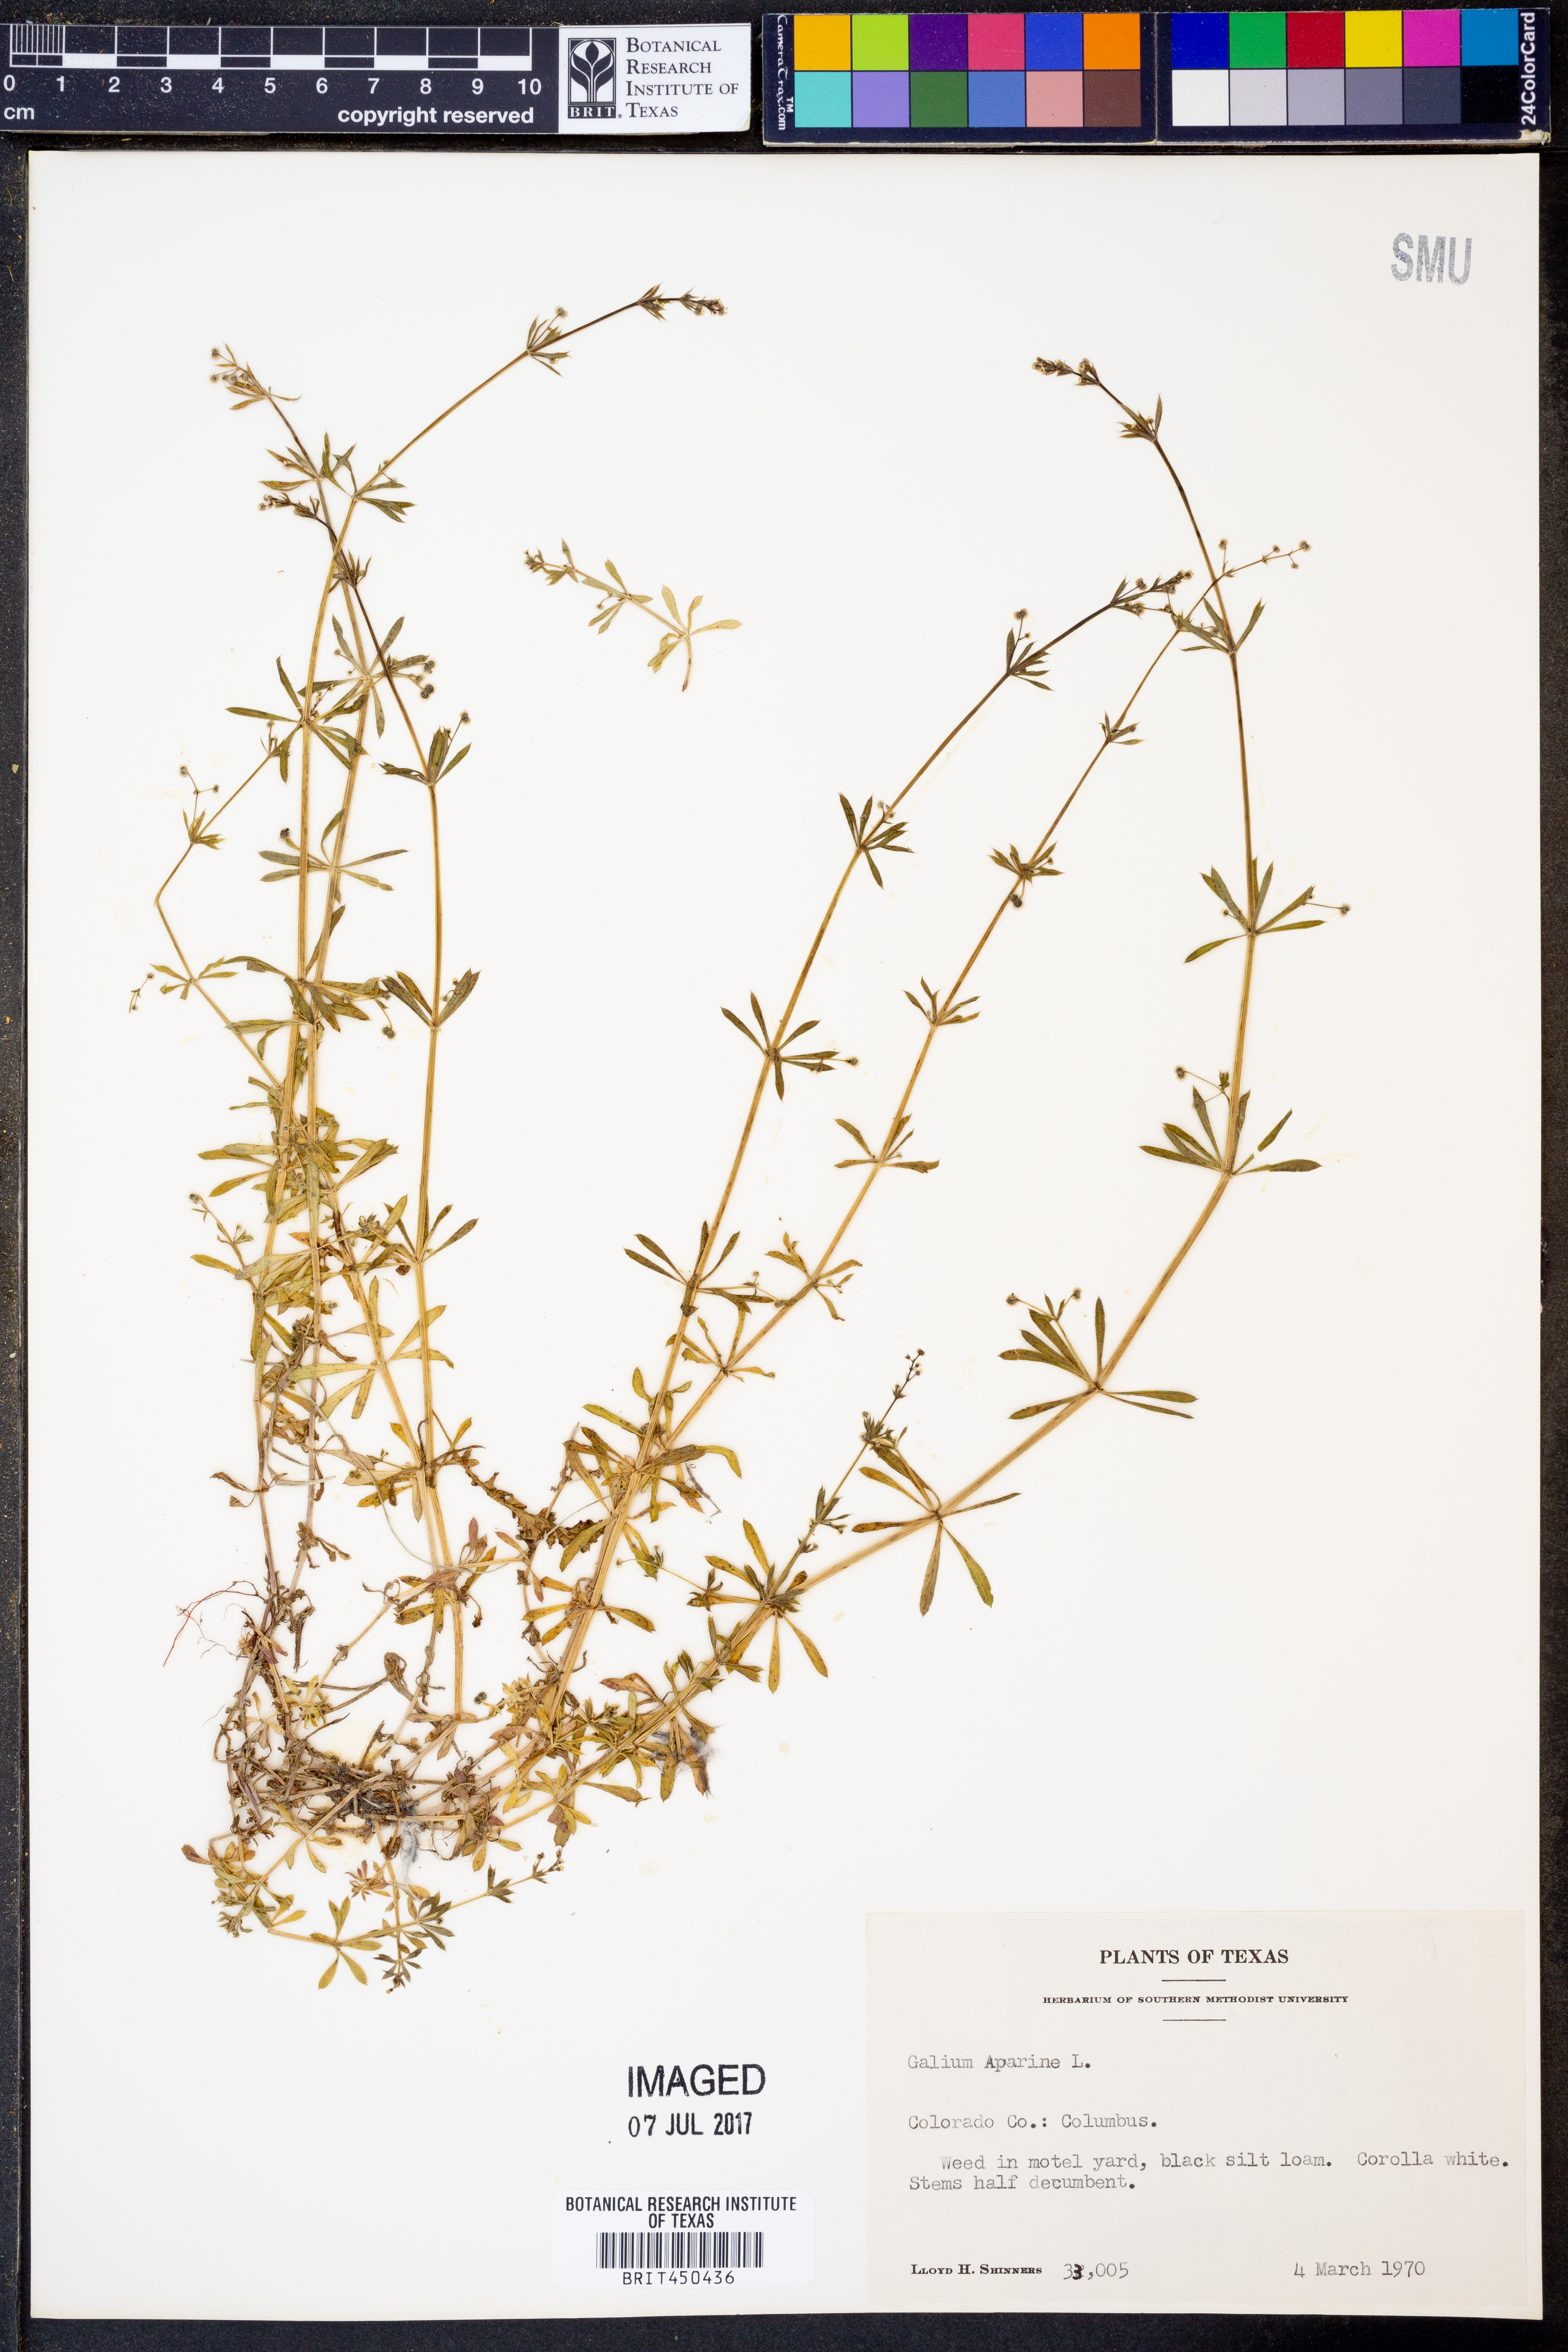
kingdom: Plantae
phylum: Tracheophyta
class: Magnoliopsida
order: Gentianales
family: Rubiaceae
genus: Galium
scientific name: Galium aparine
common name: Cleavers
